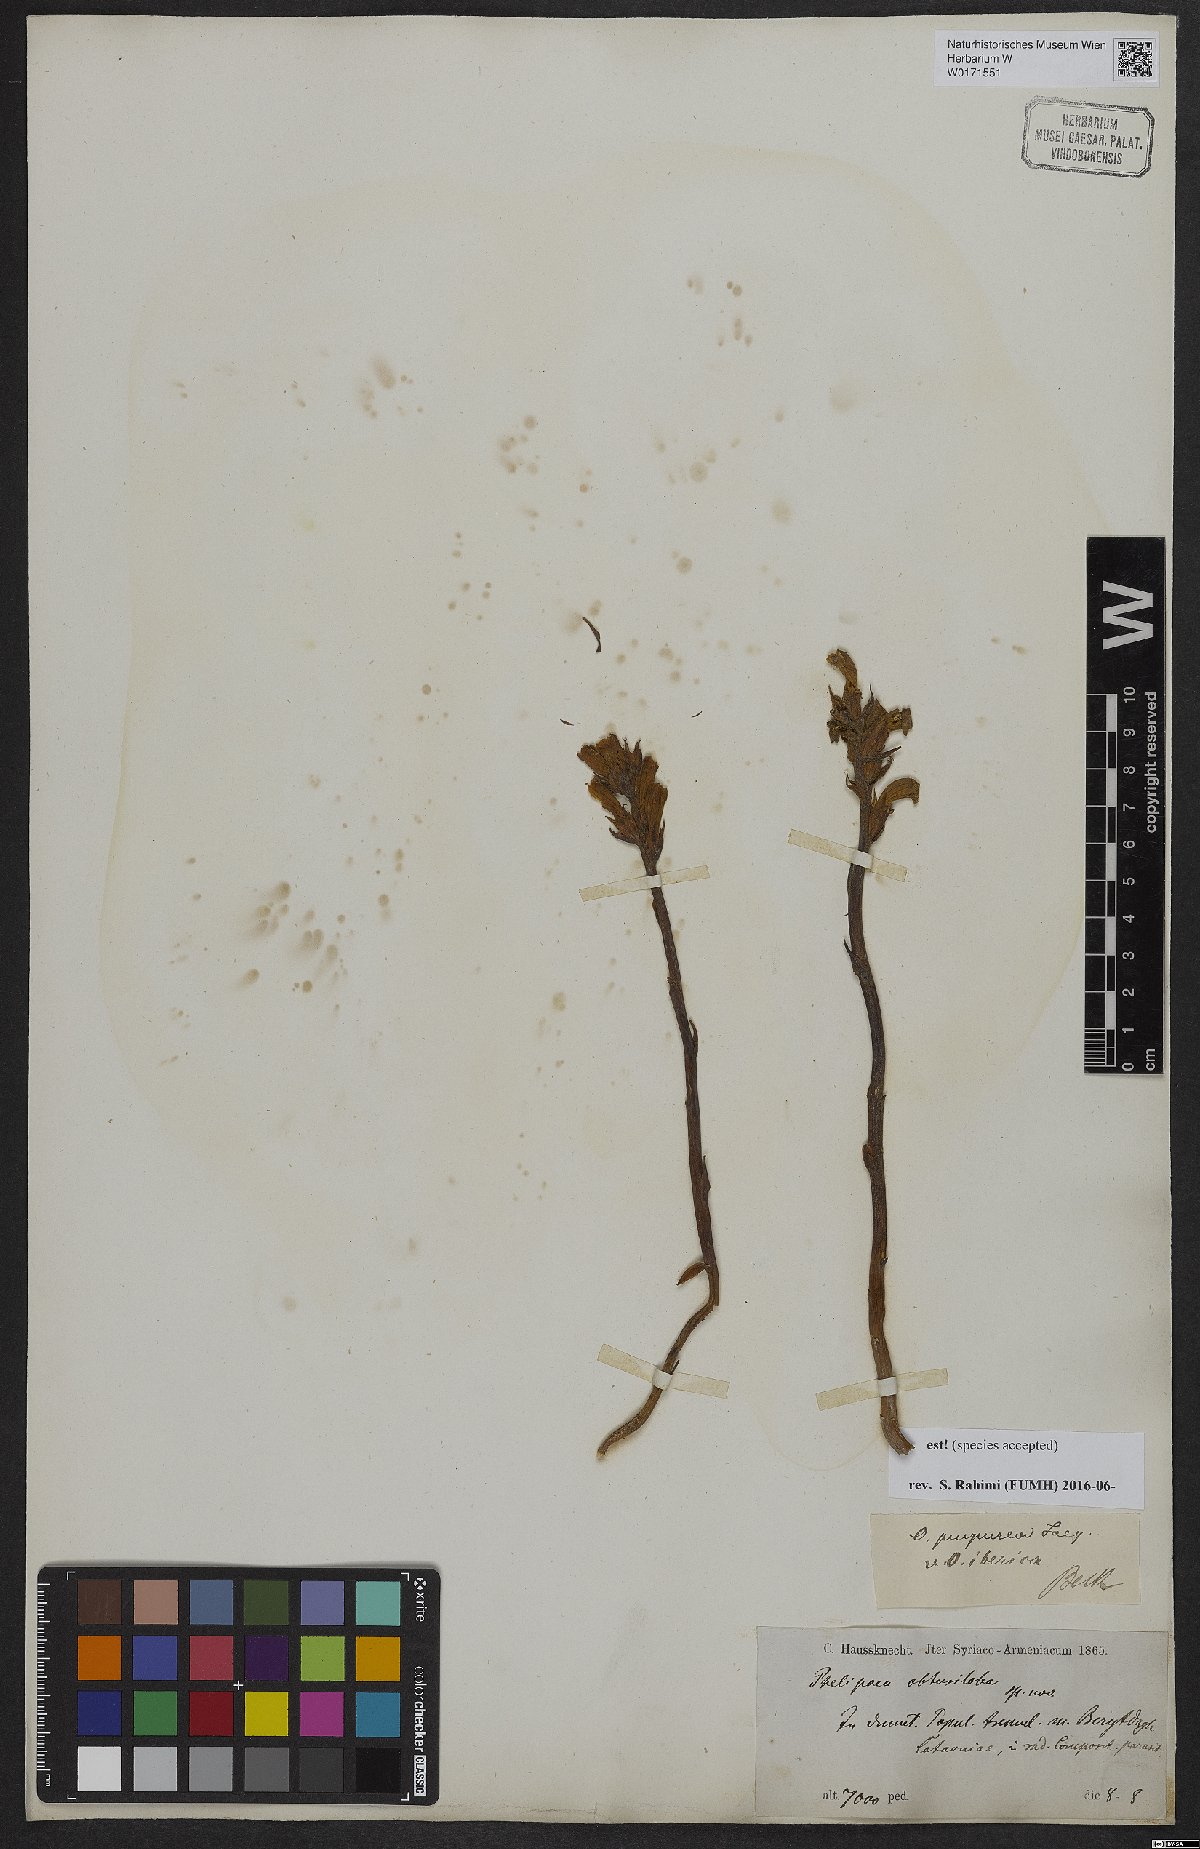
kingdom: Plantae
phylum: Tracheophyta
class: Magnoliopsida
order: Lamiales
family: Orobanchaceae
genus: Phelipanche
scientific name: Phelipanche purpurea
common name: Purple broomrape
